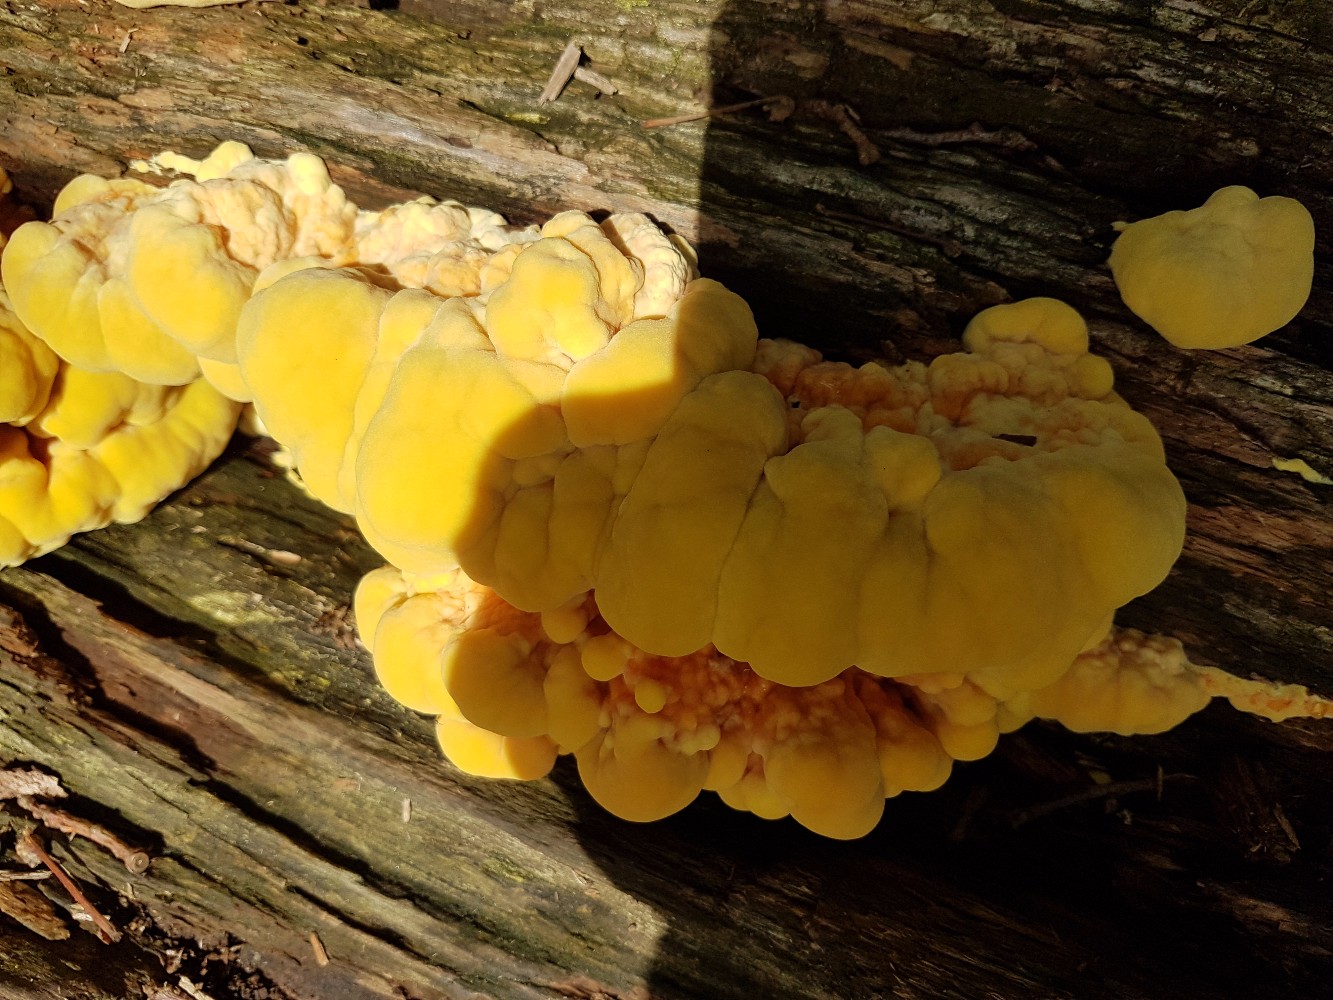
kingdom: Fungi
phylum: Basidiomycota
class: Agaricomycetes
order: Polyporales
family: Laetiporaceae
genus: Laetiporus
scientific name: Laetiporus sulphureus
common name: svovlporesvamp
